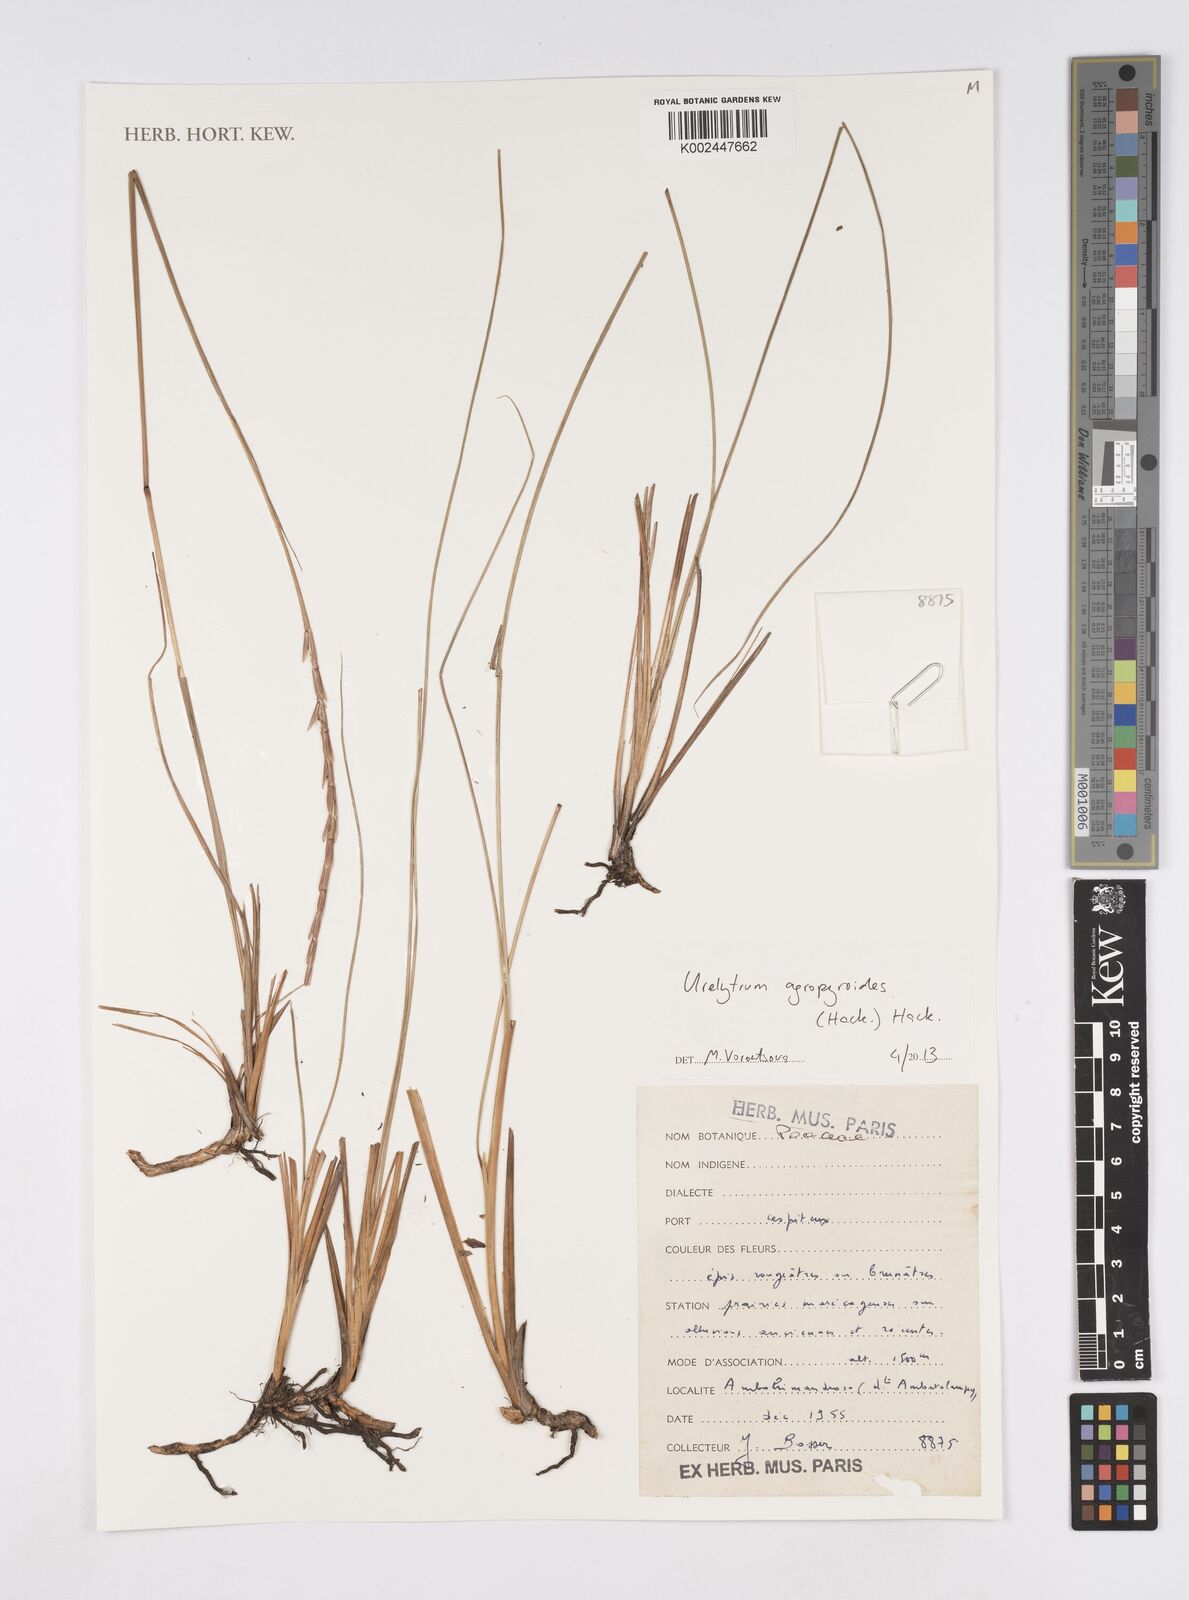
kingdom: Plantae
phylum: Tracheophyta
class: Liliopsida
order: Poales
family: Poaceae
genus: Urelytrum
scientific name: Urelytrum agropyroides
